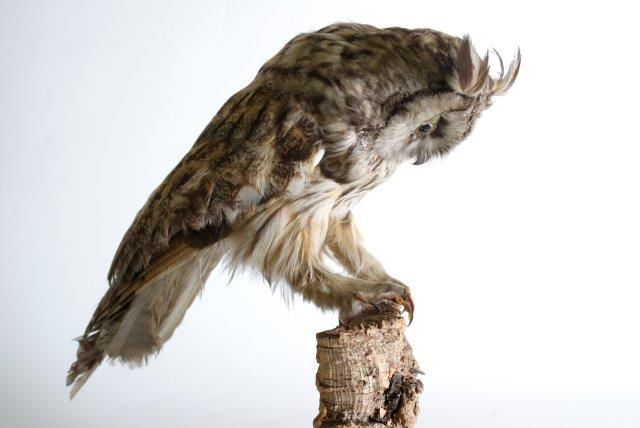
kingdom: Animalia
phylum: Chordata
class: Aves
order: Strigiformes
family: Strigidae
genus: Asio
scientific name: Asio otus
